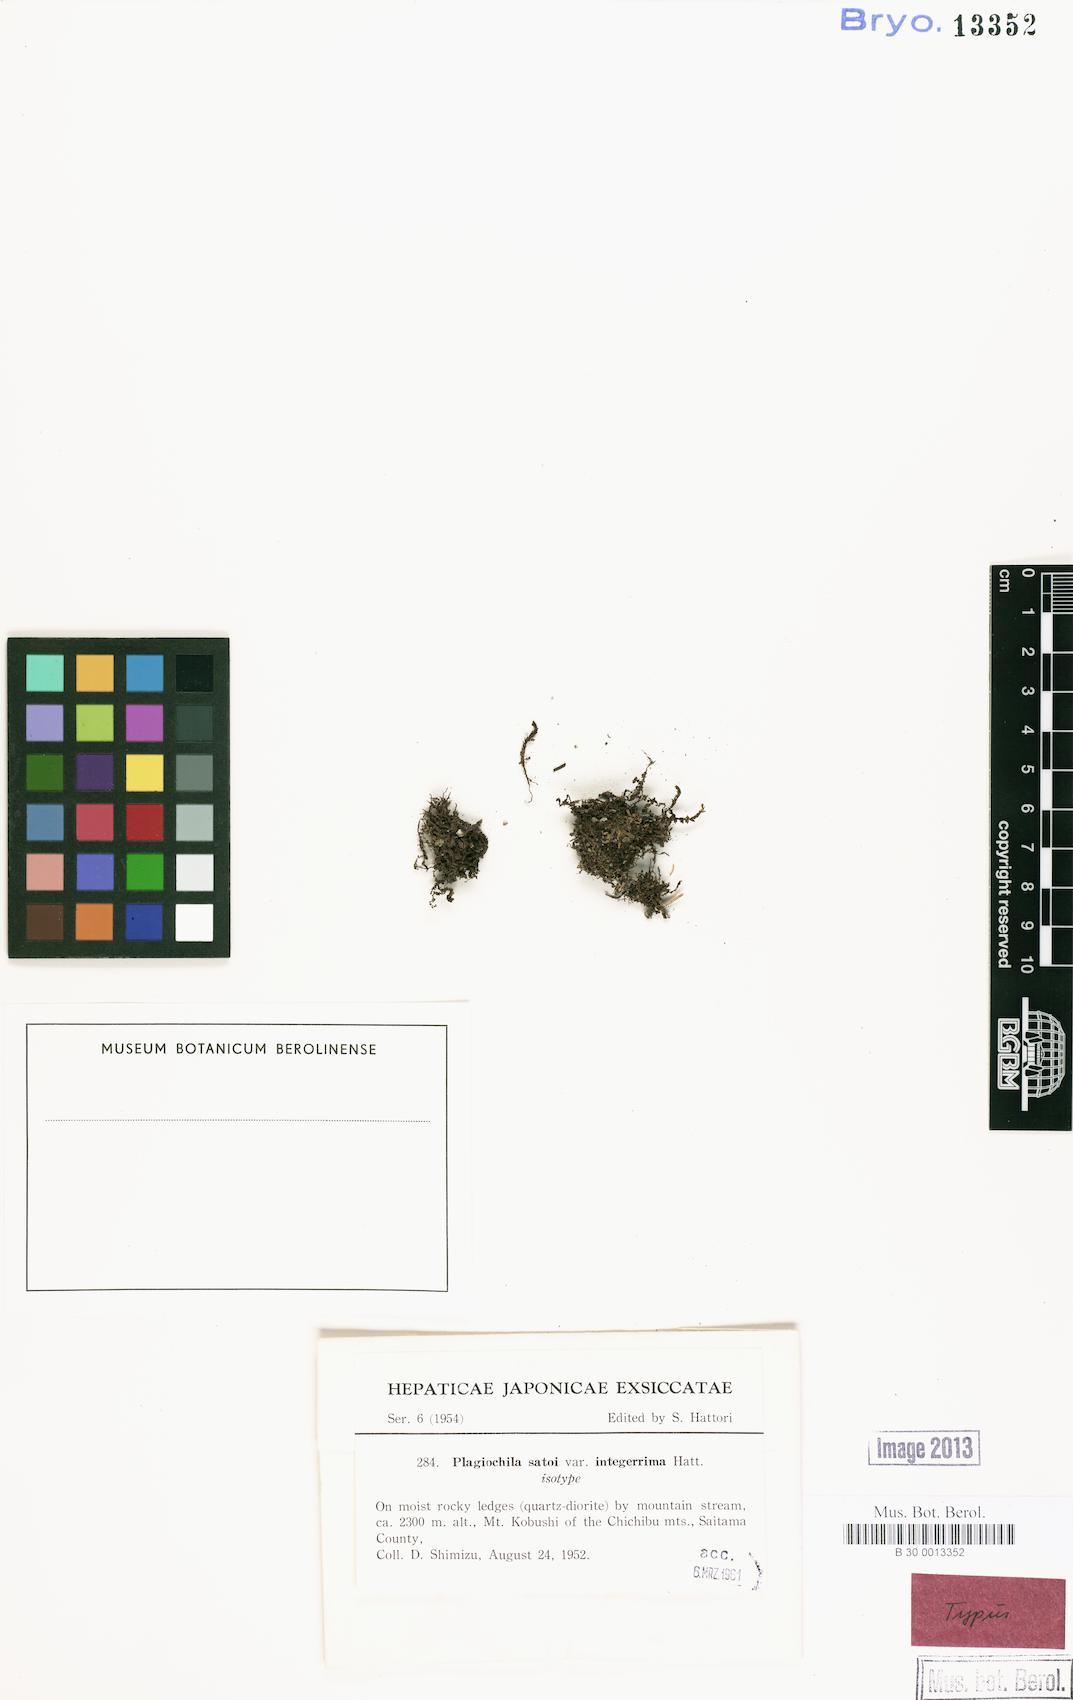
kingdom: Plantae
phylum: Marchantiophyta
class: Jungermanniopsida
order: Jungermanniales
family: Plagiochilaceae
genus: Plagiochila
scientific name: Plagiochila porelloides
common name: Lesser featherwort
